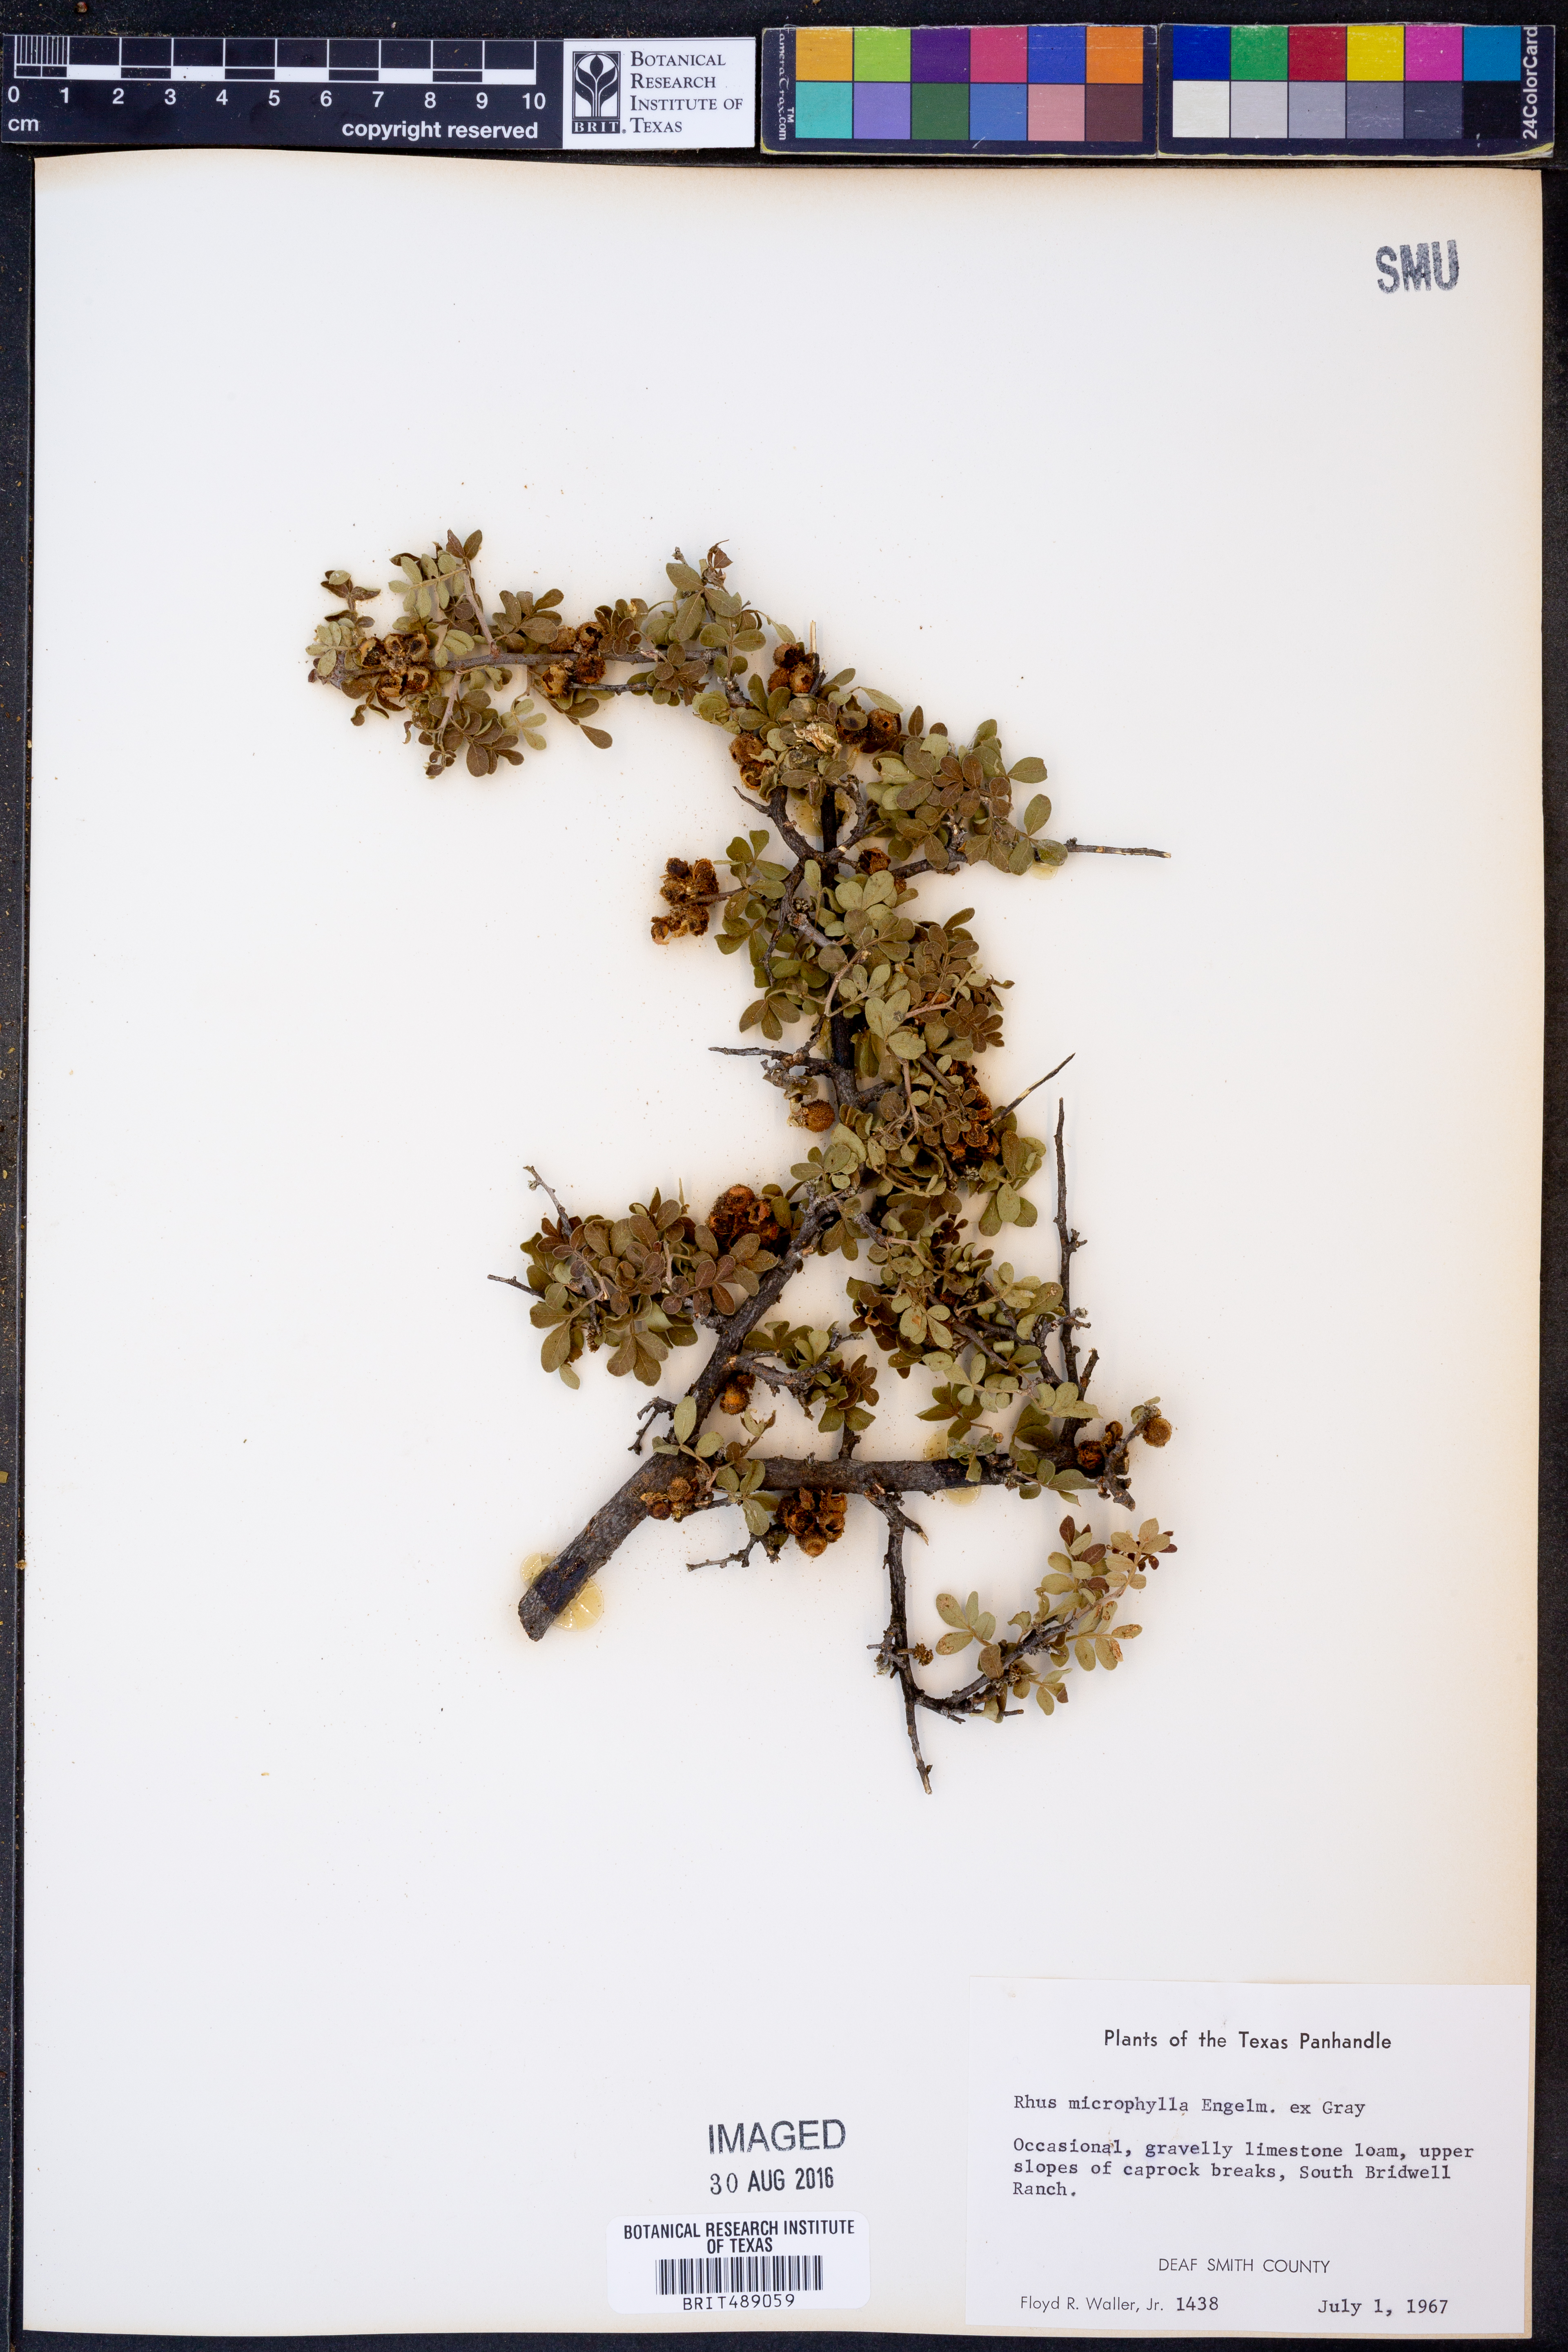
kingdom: Plantae
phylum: Tracheophyta
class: Magnoliopsida
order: Sapindales
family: Anacardiaceae
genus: Rhus
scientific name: Rhus microphylla
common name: Desert sumac
